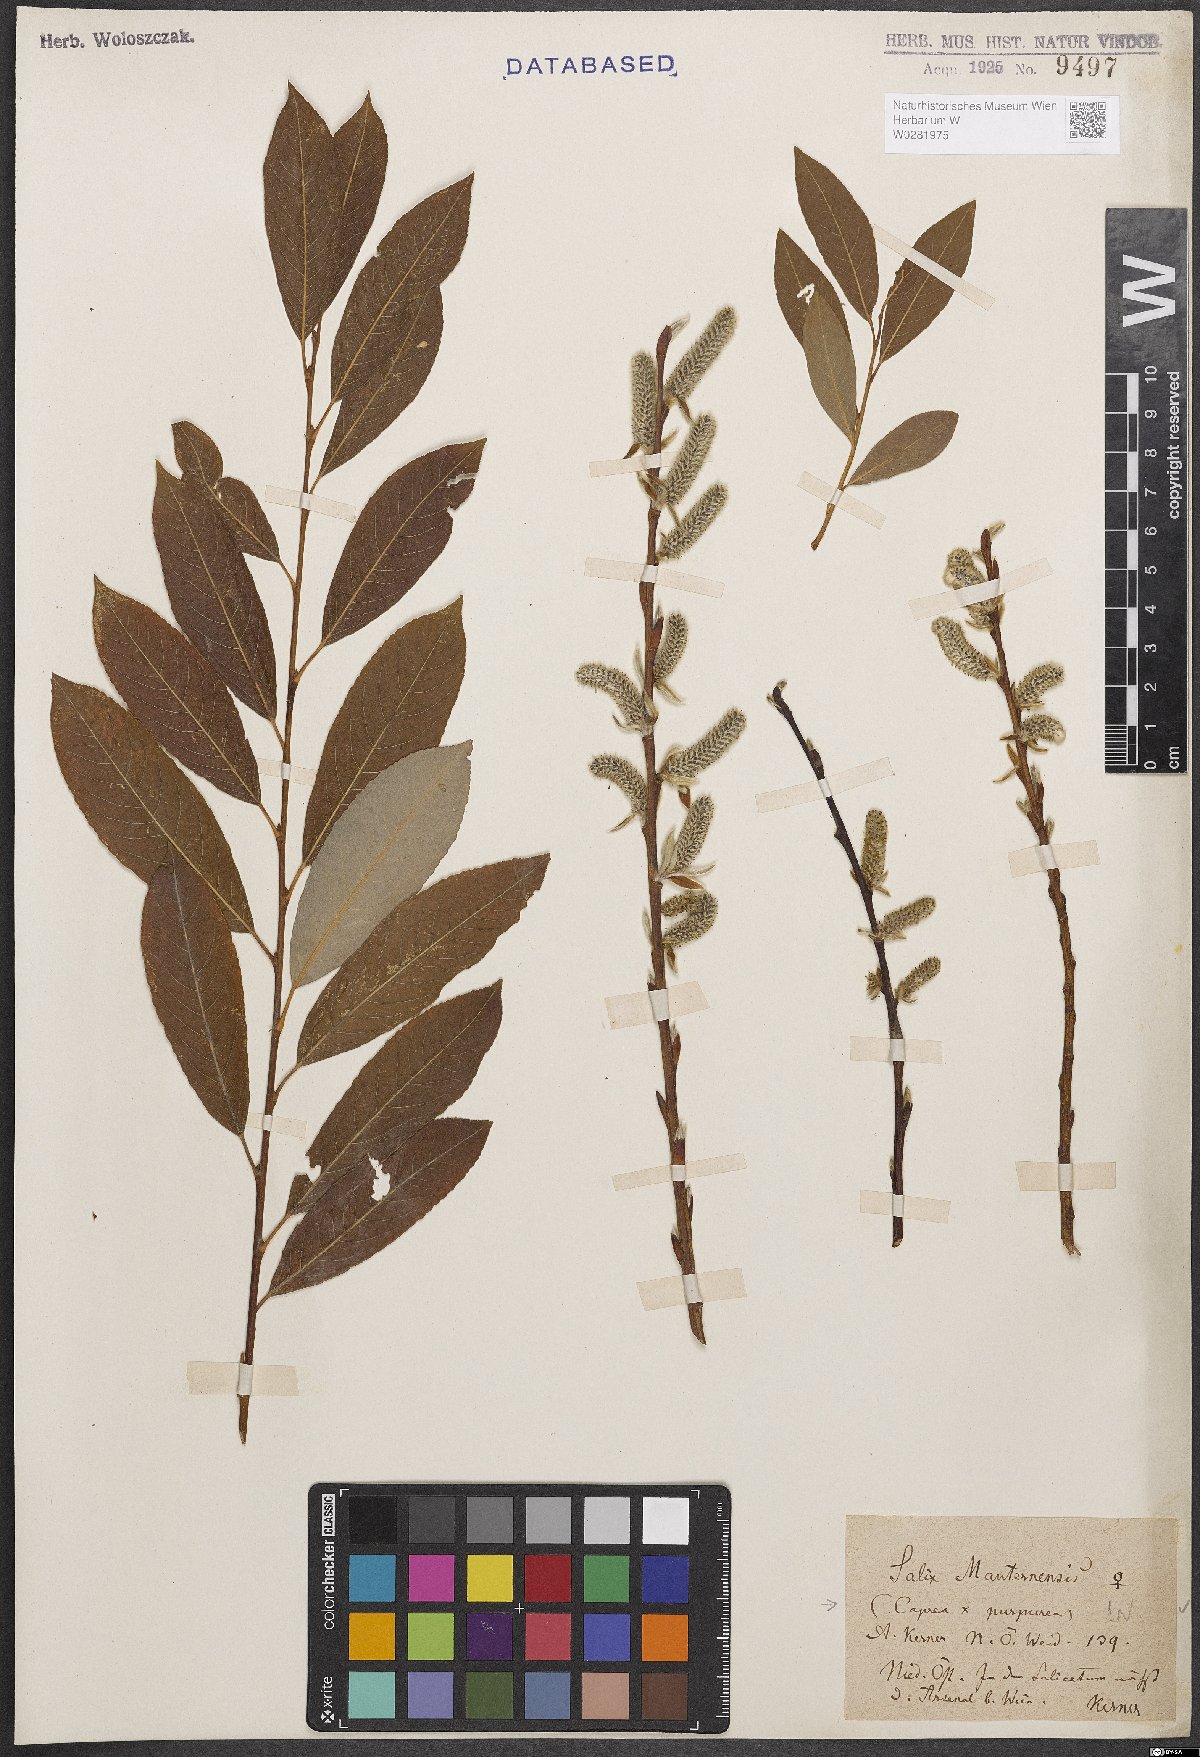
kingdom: Plantae
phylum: Tracheophyta
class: Magnoliopsida
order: Malpighiales
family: Salicaceae
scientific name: Salicaceae
